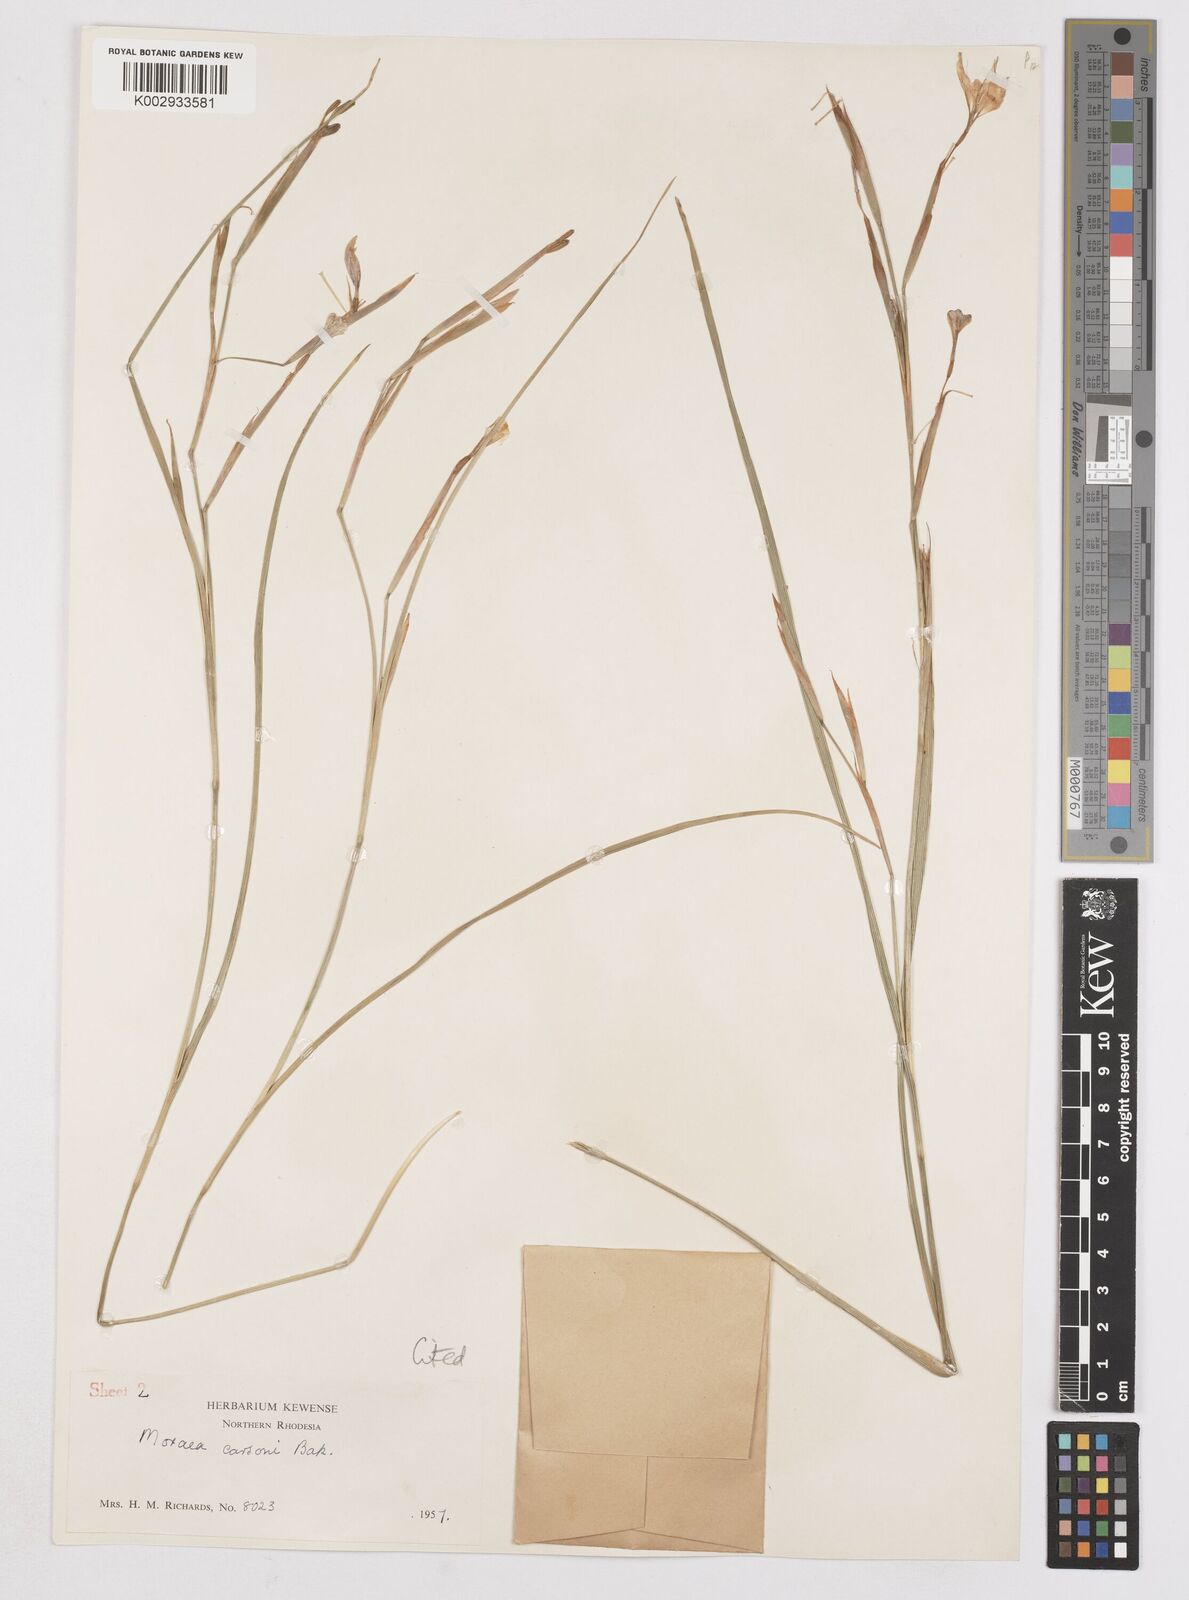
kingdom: Plantae
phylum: Tracheophyta
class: Liliopsida
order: Asparagales
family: Iridaceae
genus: Moraea
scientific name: Moraea carsonii
